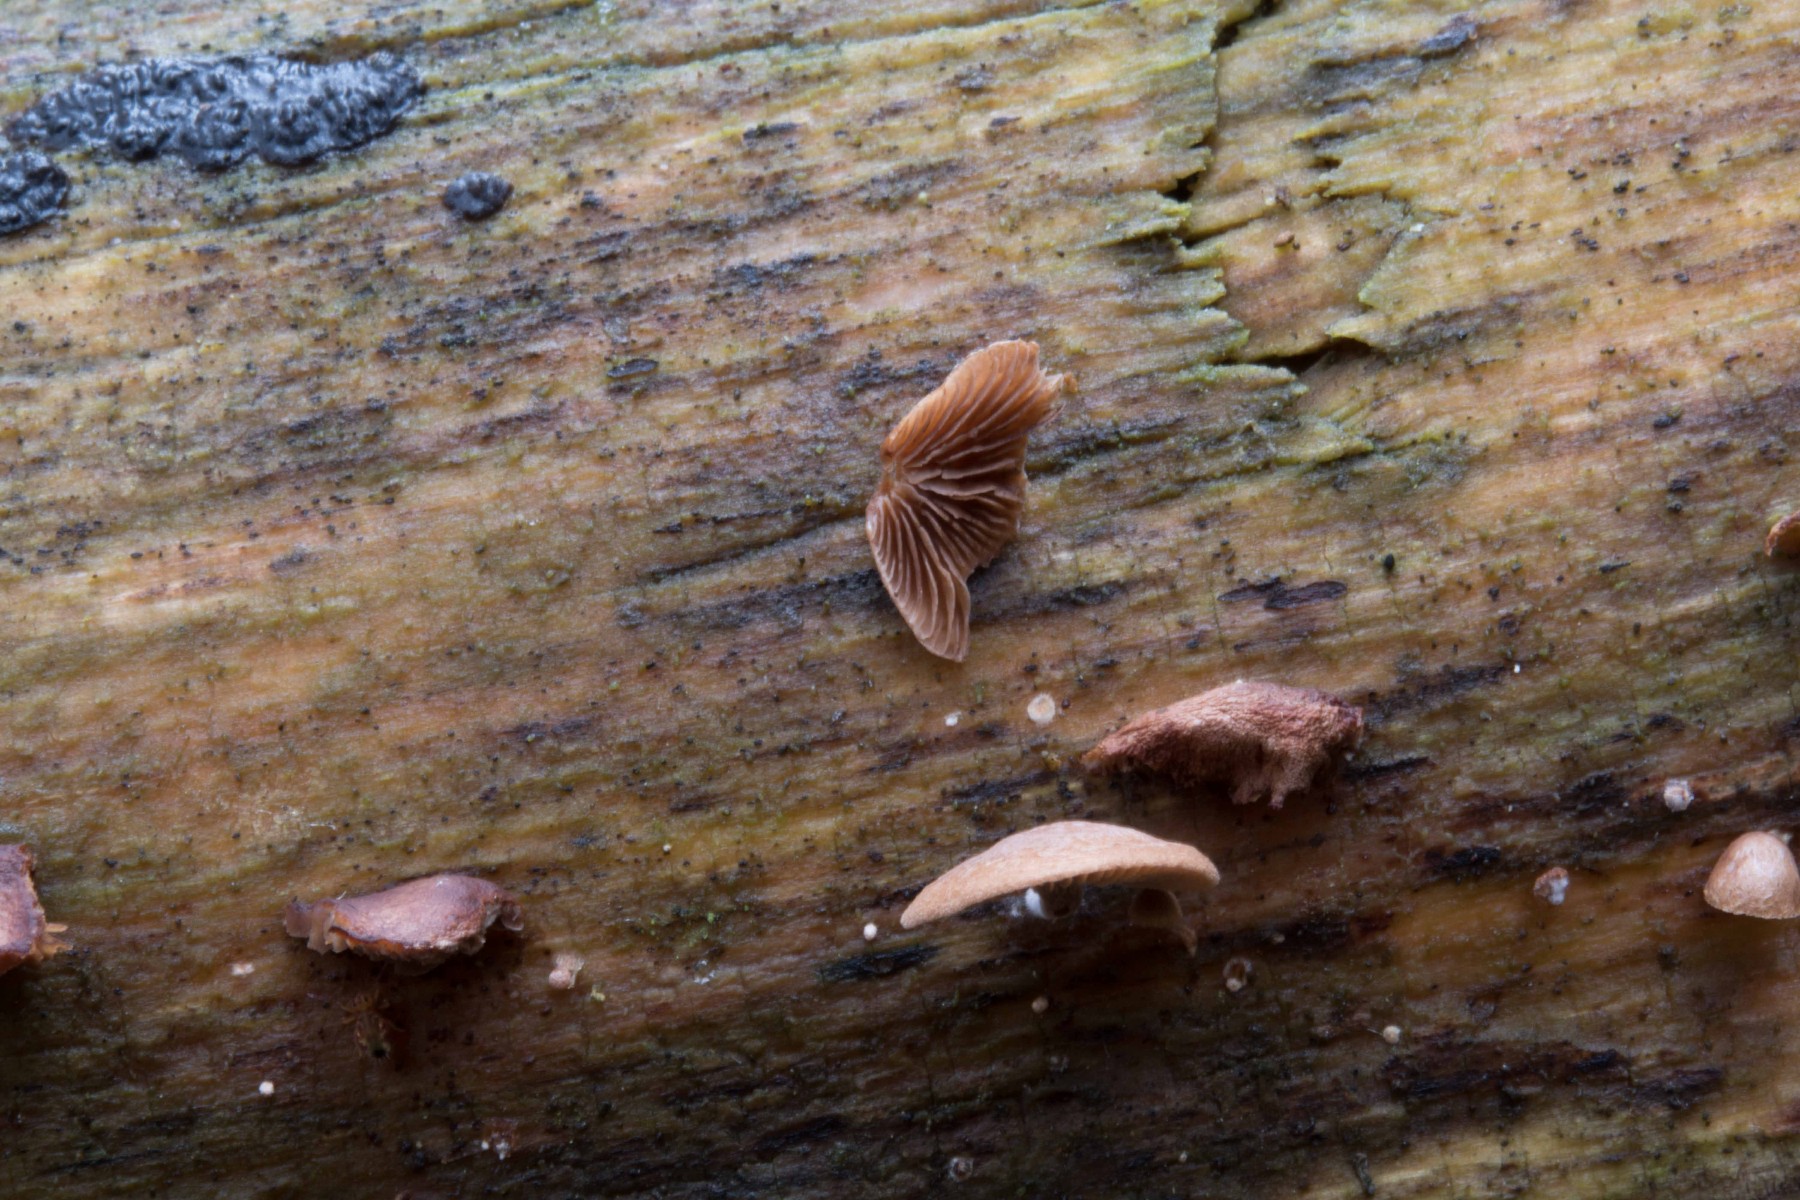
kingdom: Fungi
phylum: Basidiomycota
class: Agaricomycetes
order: Agaricales
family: Strophariaceae
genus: Deconica
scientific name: Deconica horizontalis
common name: ved-stråhat
